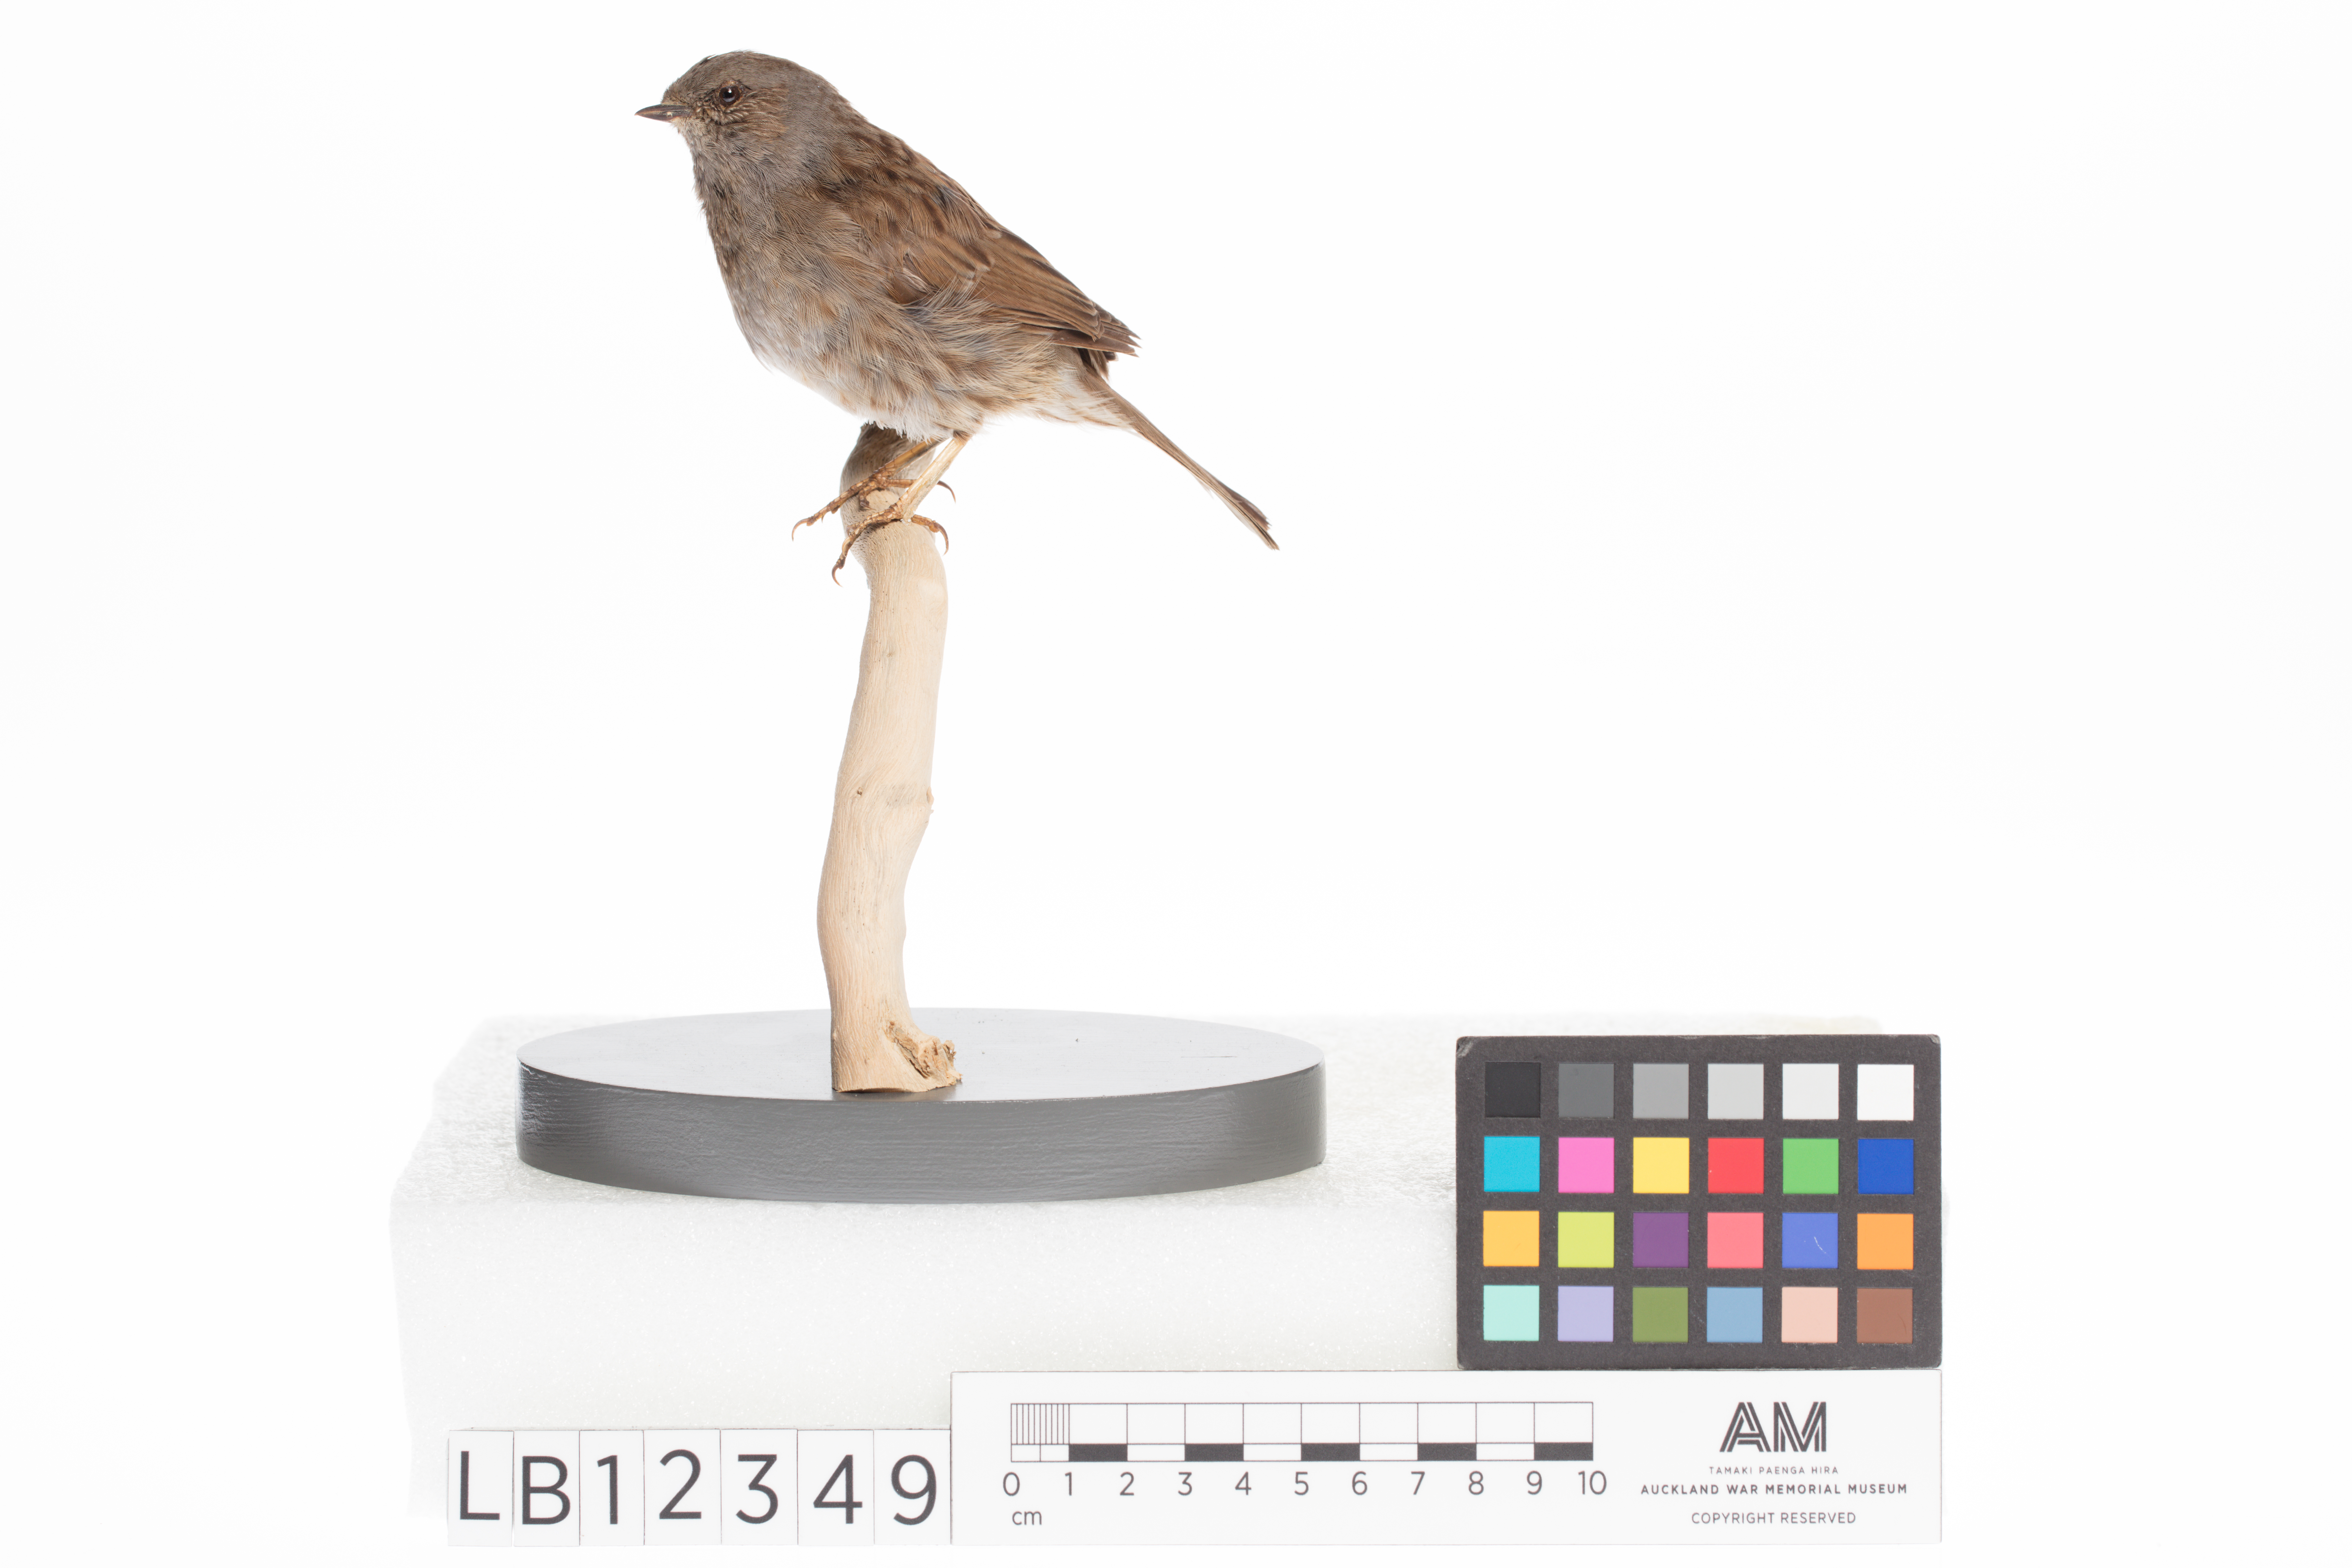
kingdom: Animalia
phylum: Chordata
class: Aves
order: Passeriformes
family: Prunellidae
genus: Prunella
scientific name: Prunella modularis
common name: Dunnock
